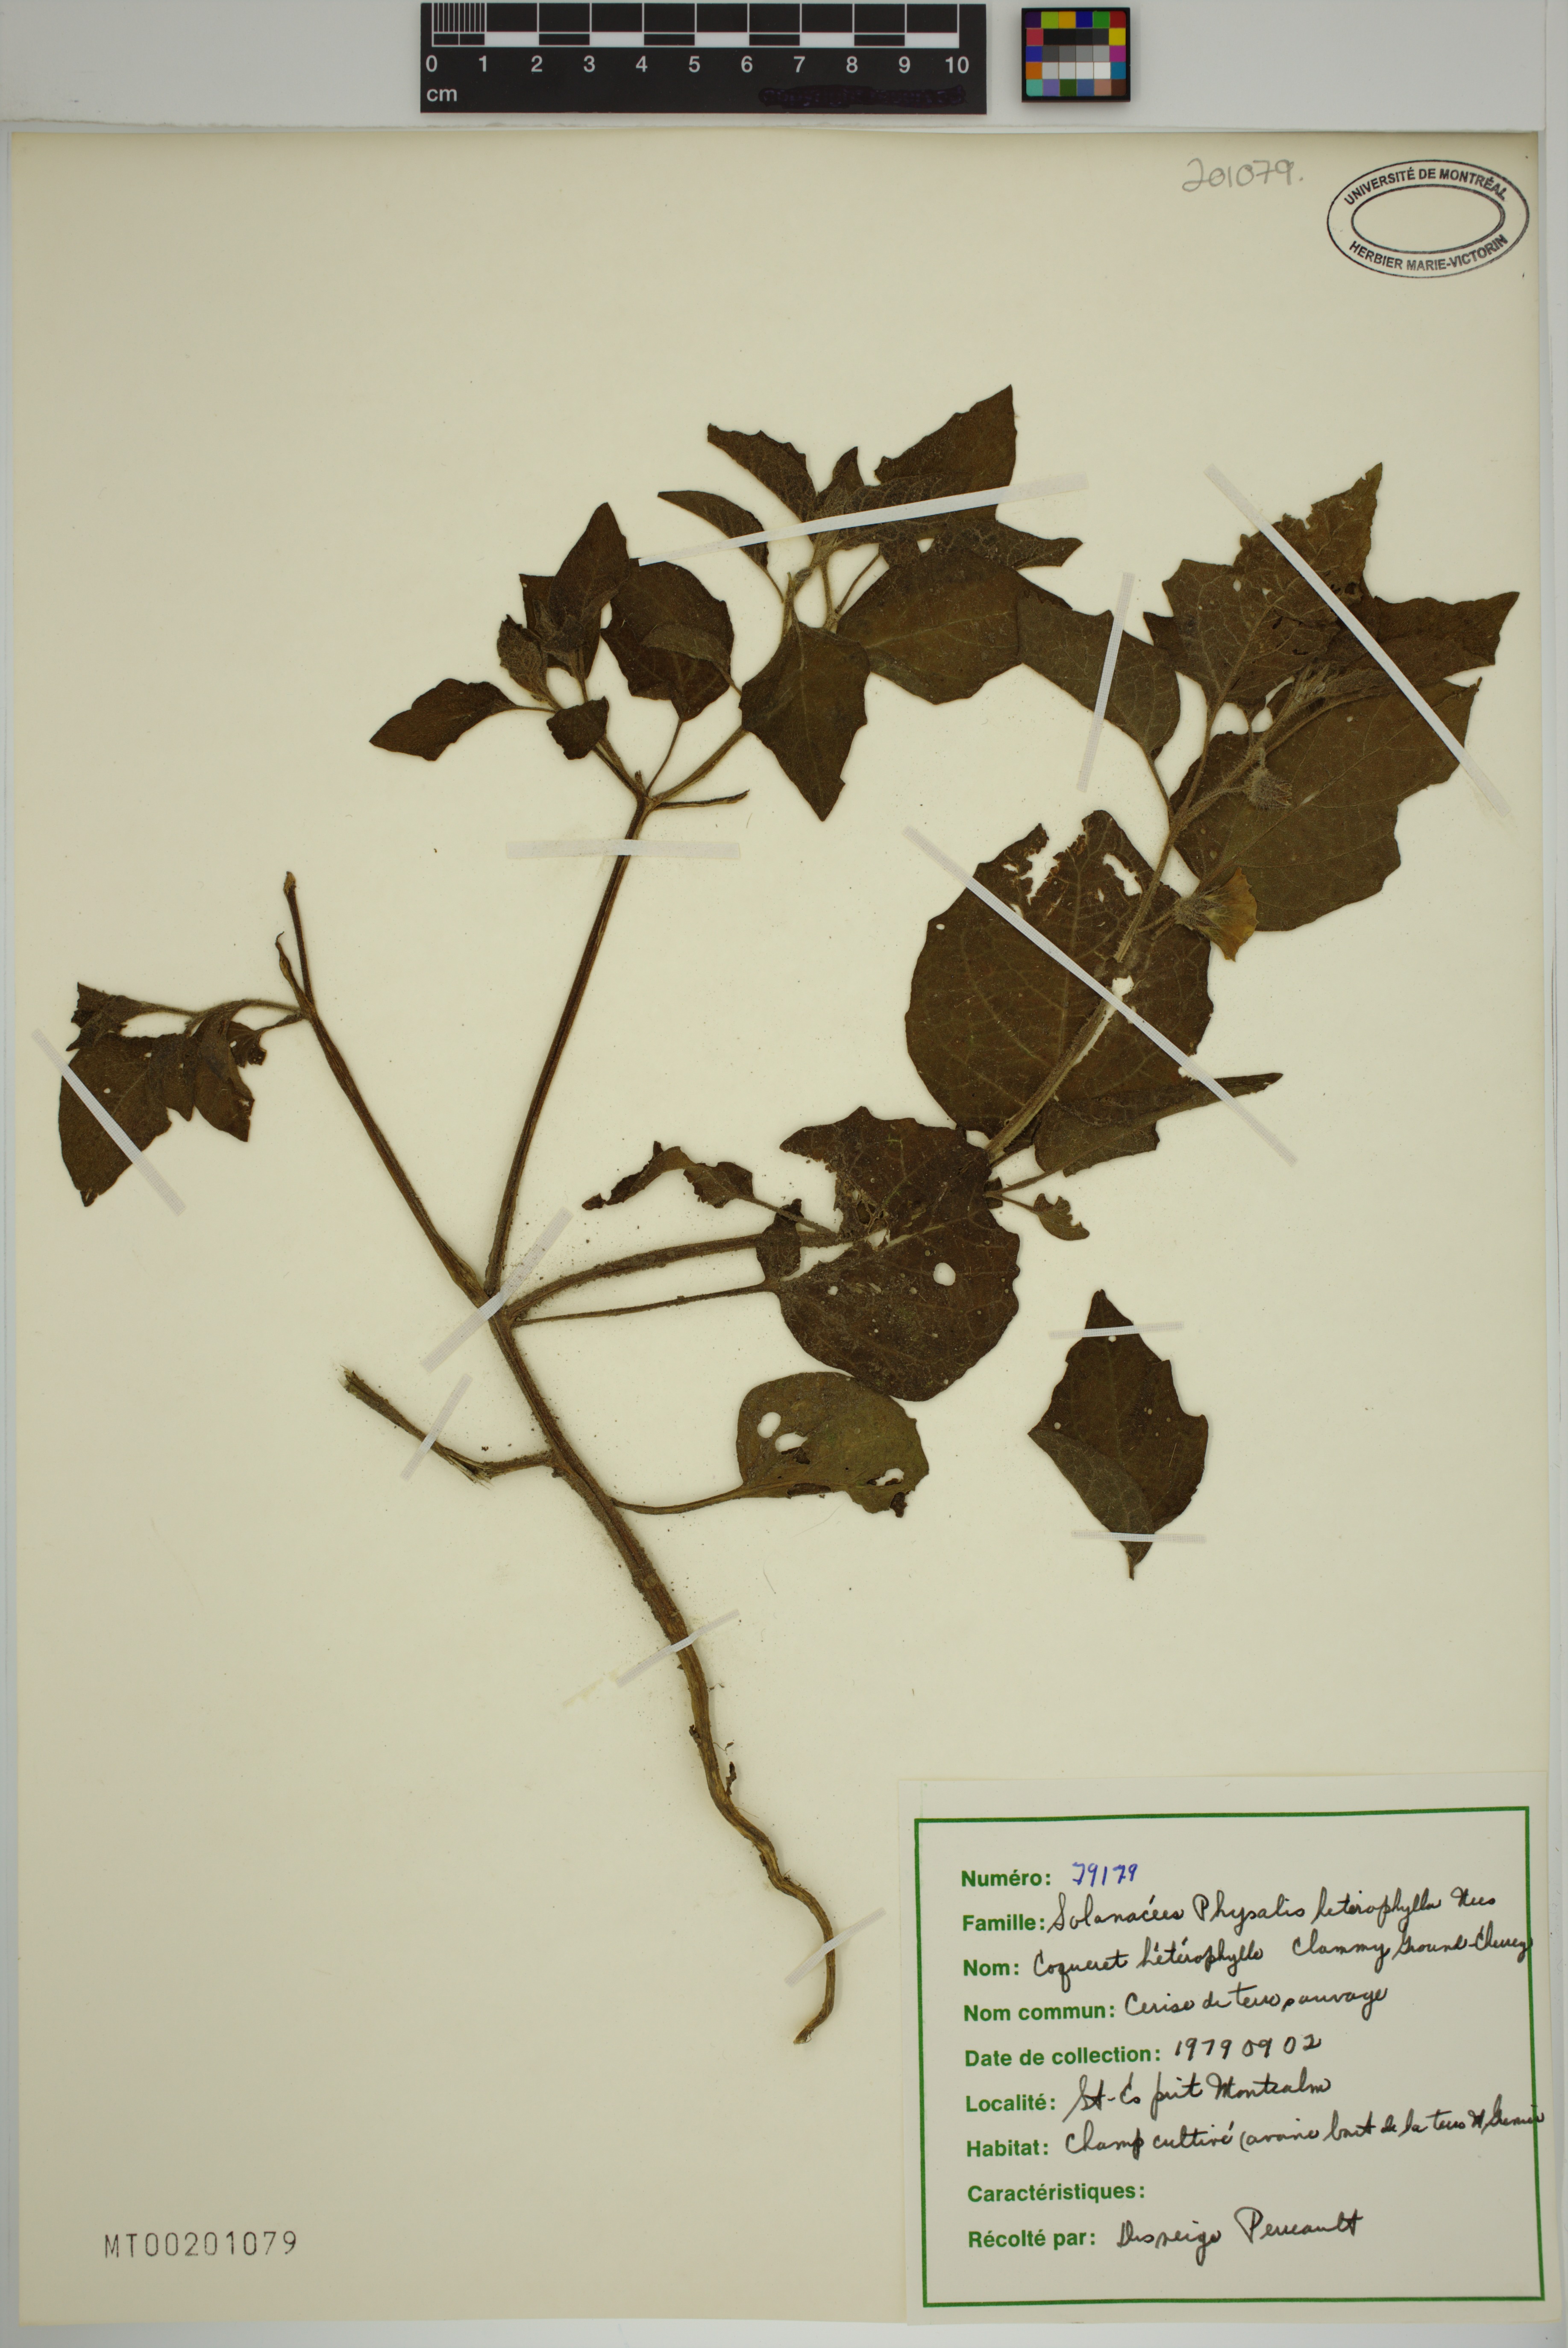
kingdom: Plantae
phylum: Tracheophyta
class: Magnoliopsida
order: Solanales
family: Solanaceae
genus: Physalis
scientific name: Physalis heterophylla
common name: Clammy ground-cherry
